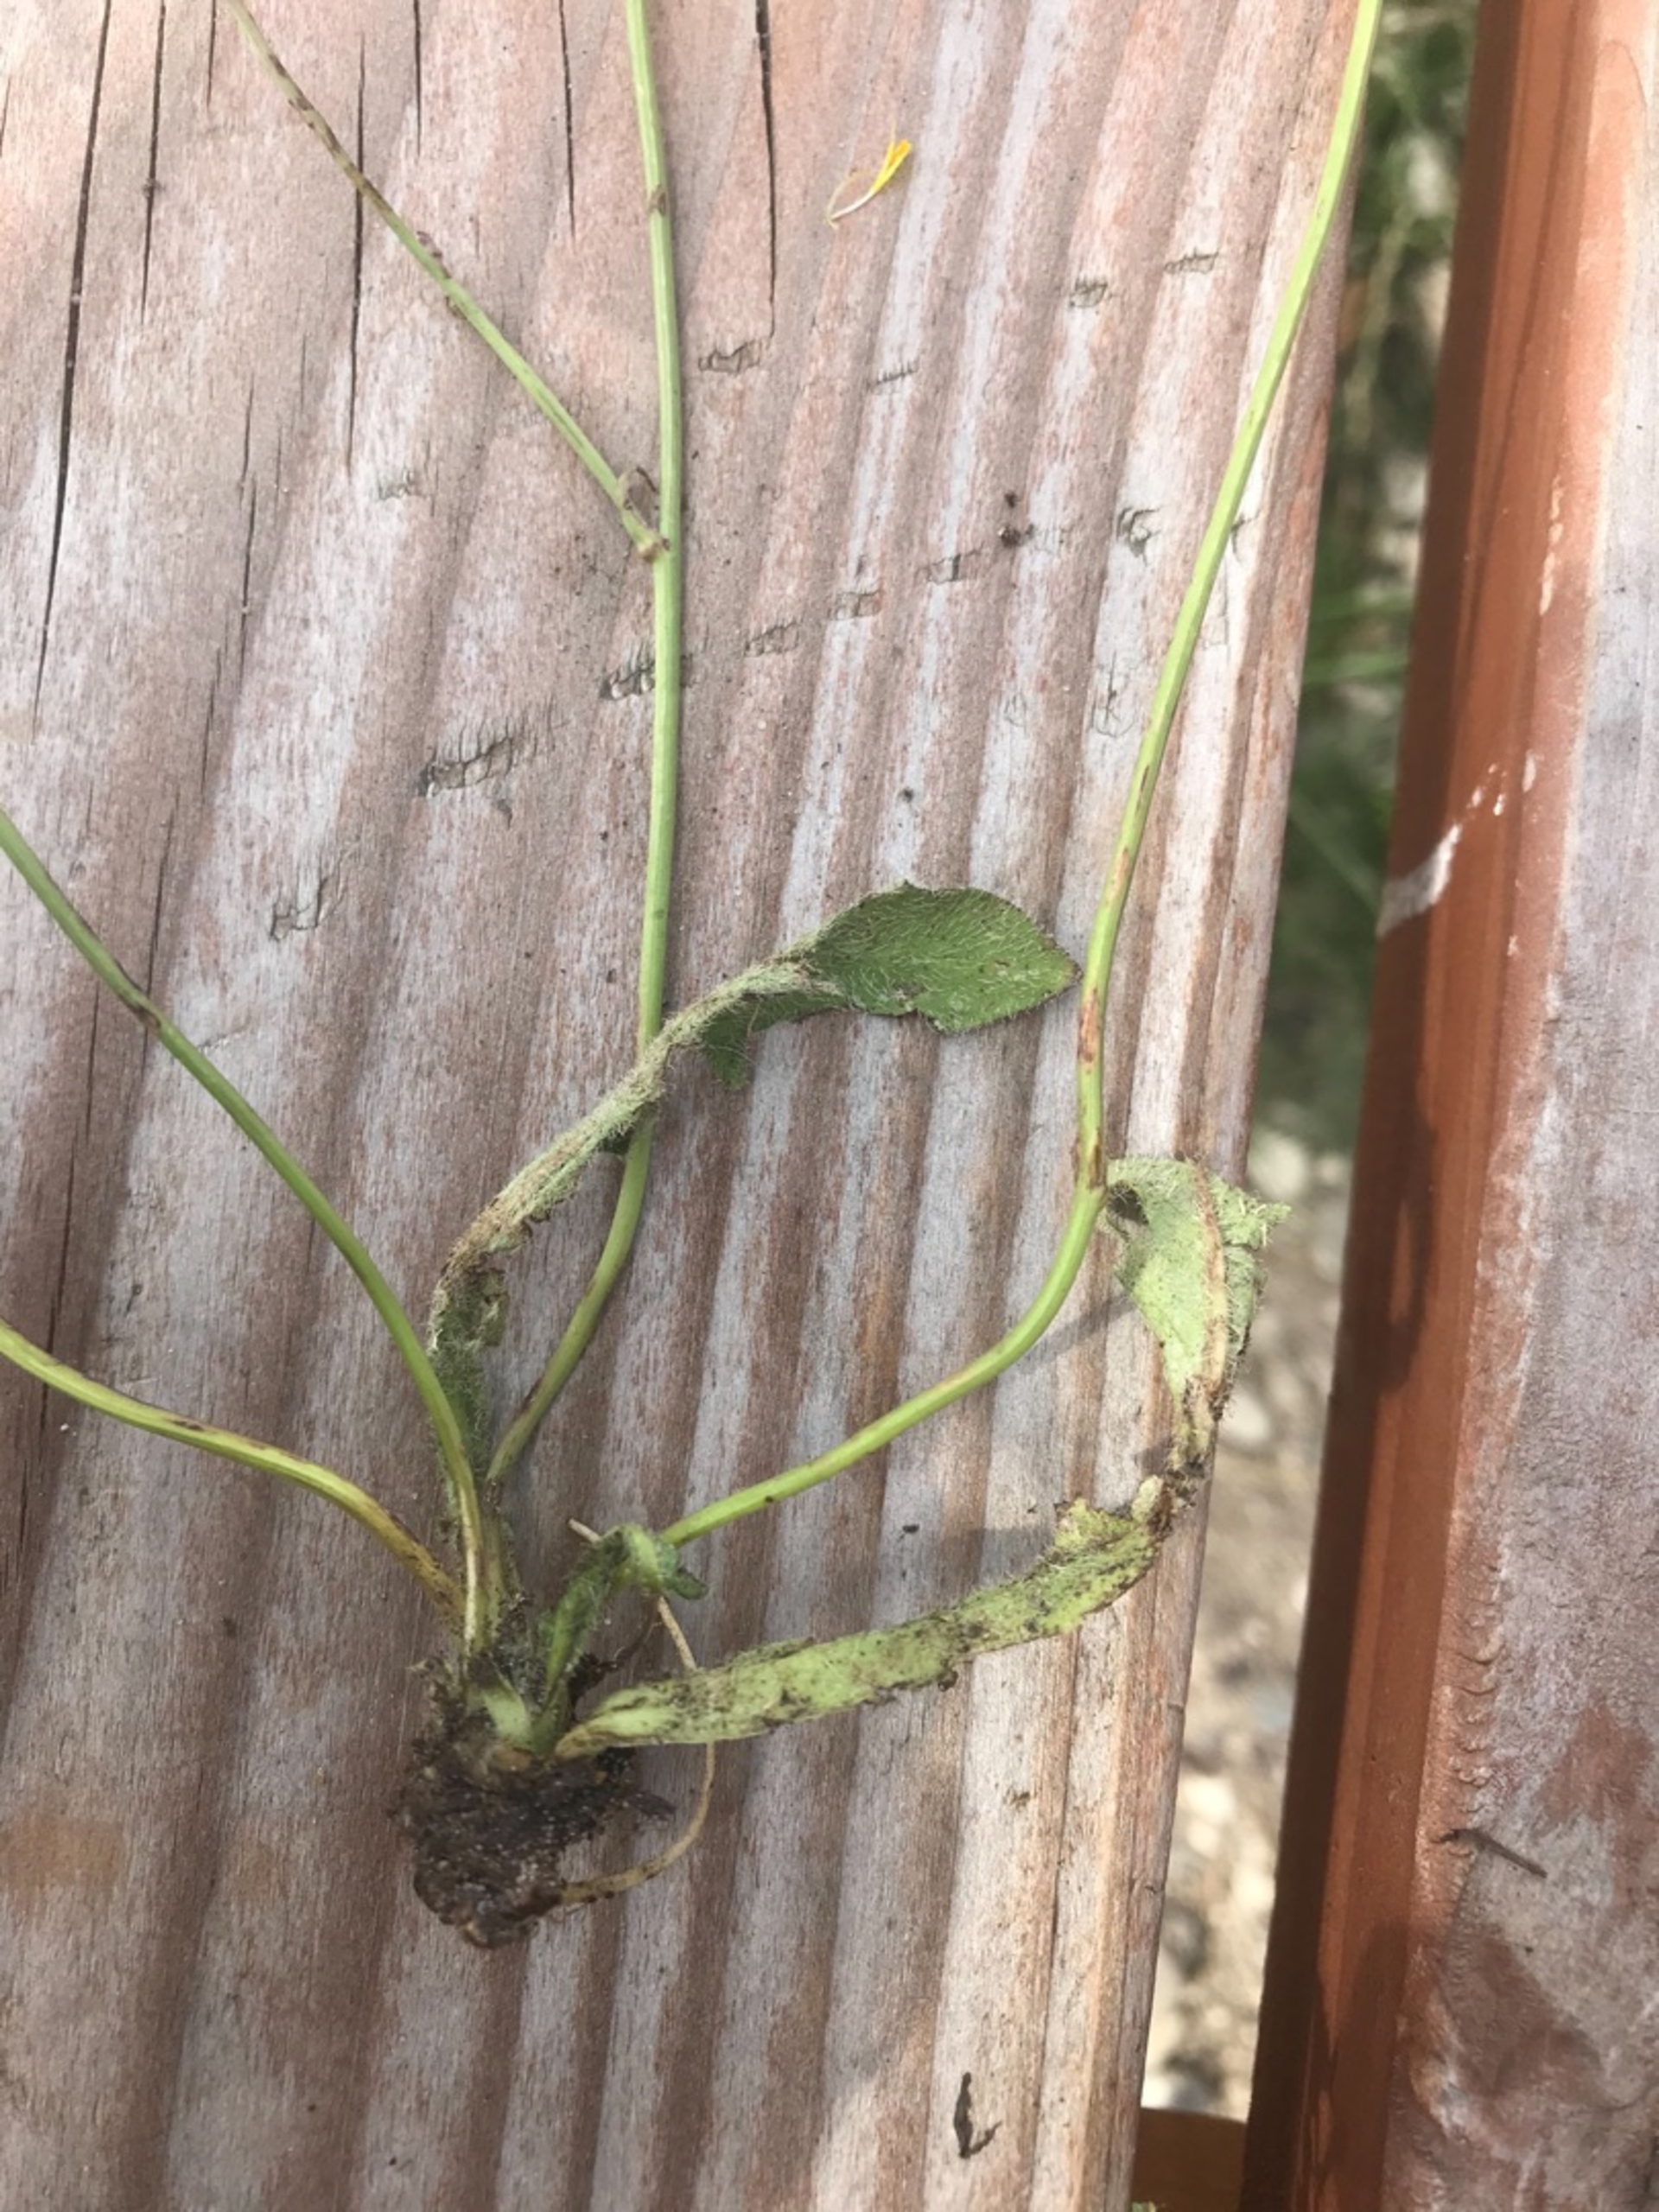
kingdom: Plantae
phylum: Tracheophyta
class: Magnoliopsida
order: Asterales
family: Asteraceae
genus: Hypochaeris
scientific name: Hypochaeris radicata
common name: Almindelig kongepen
